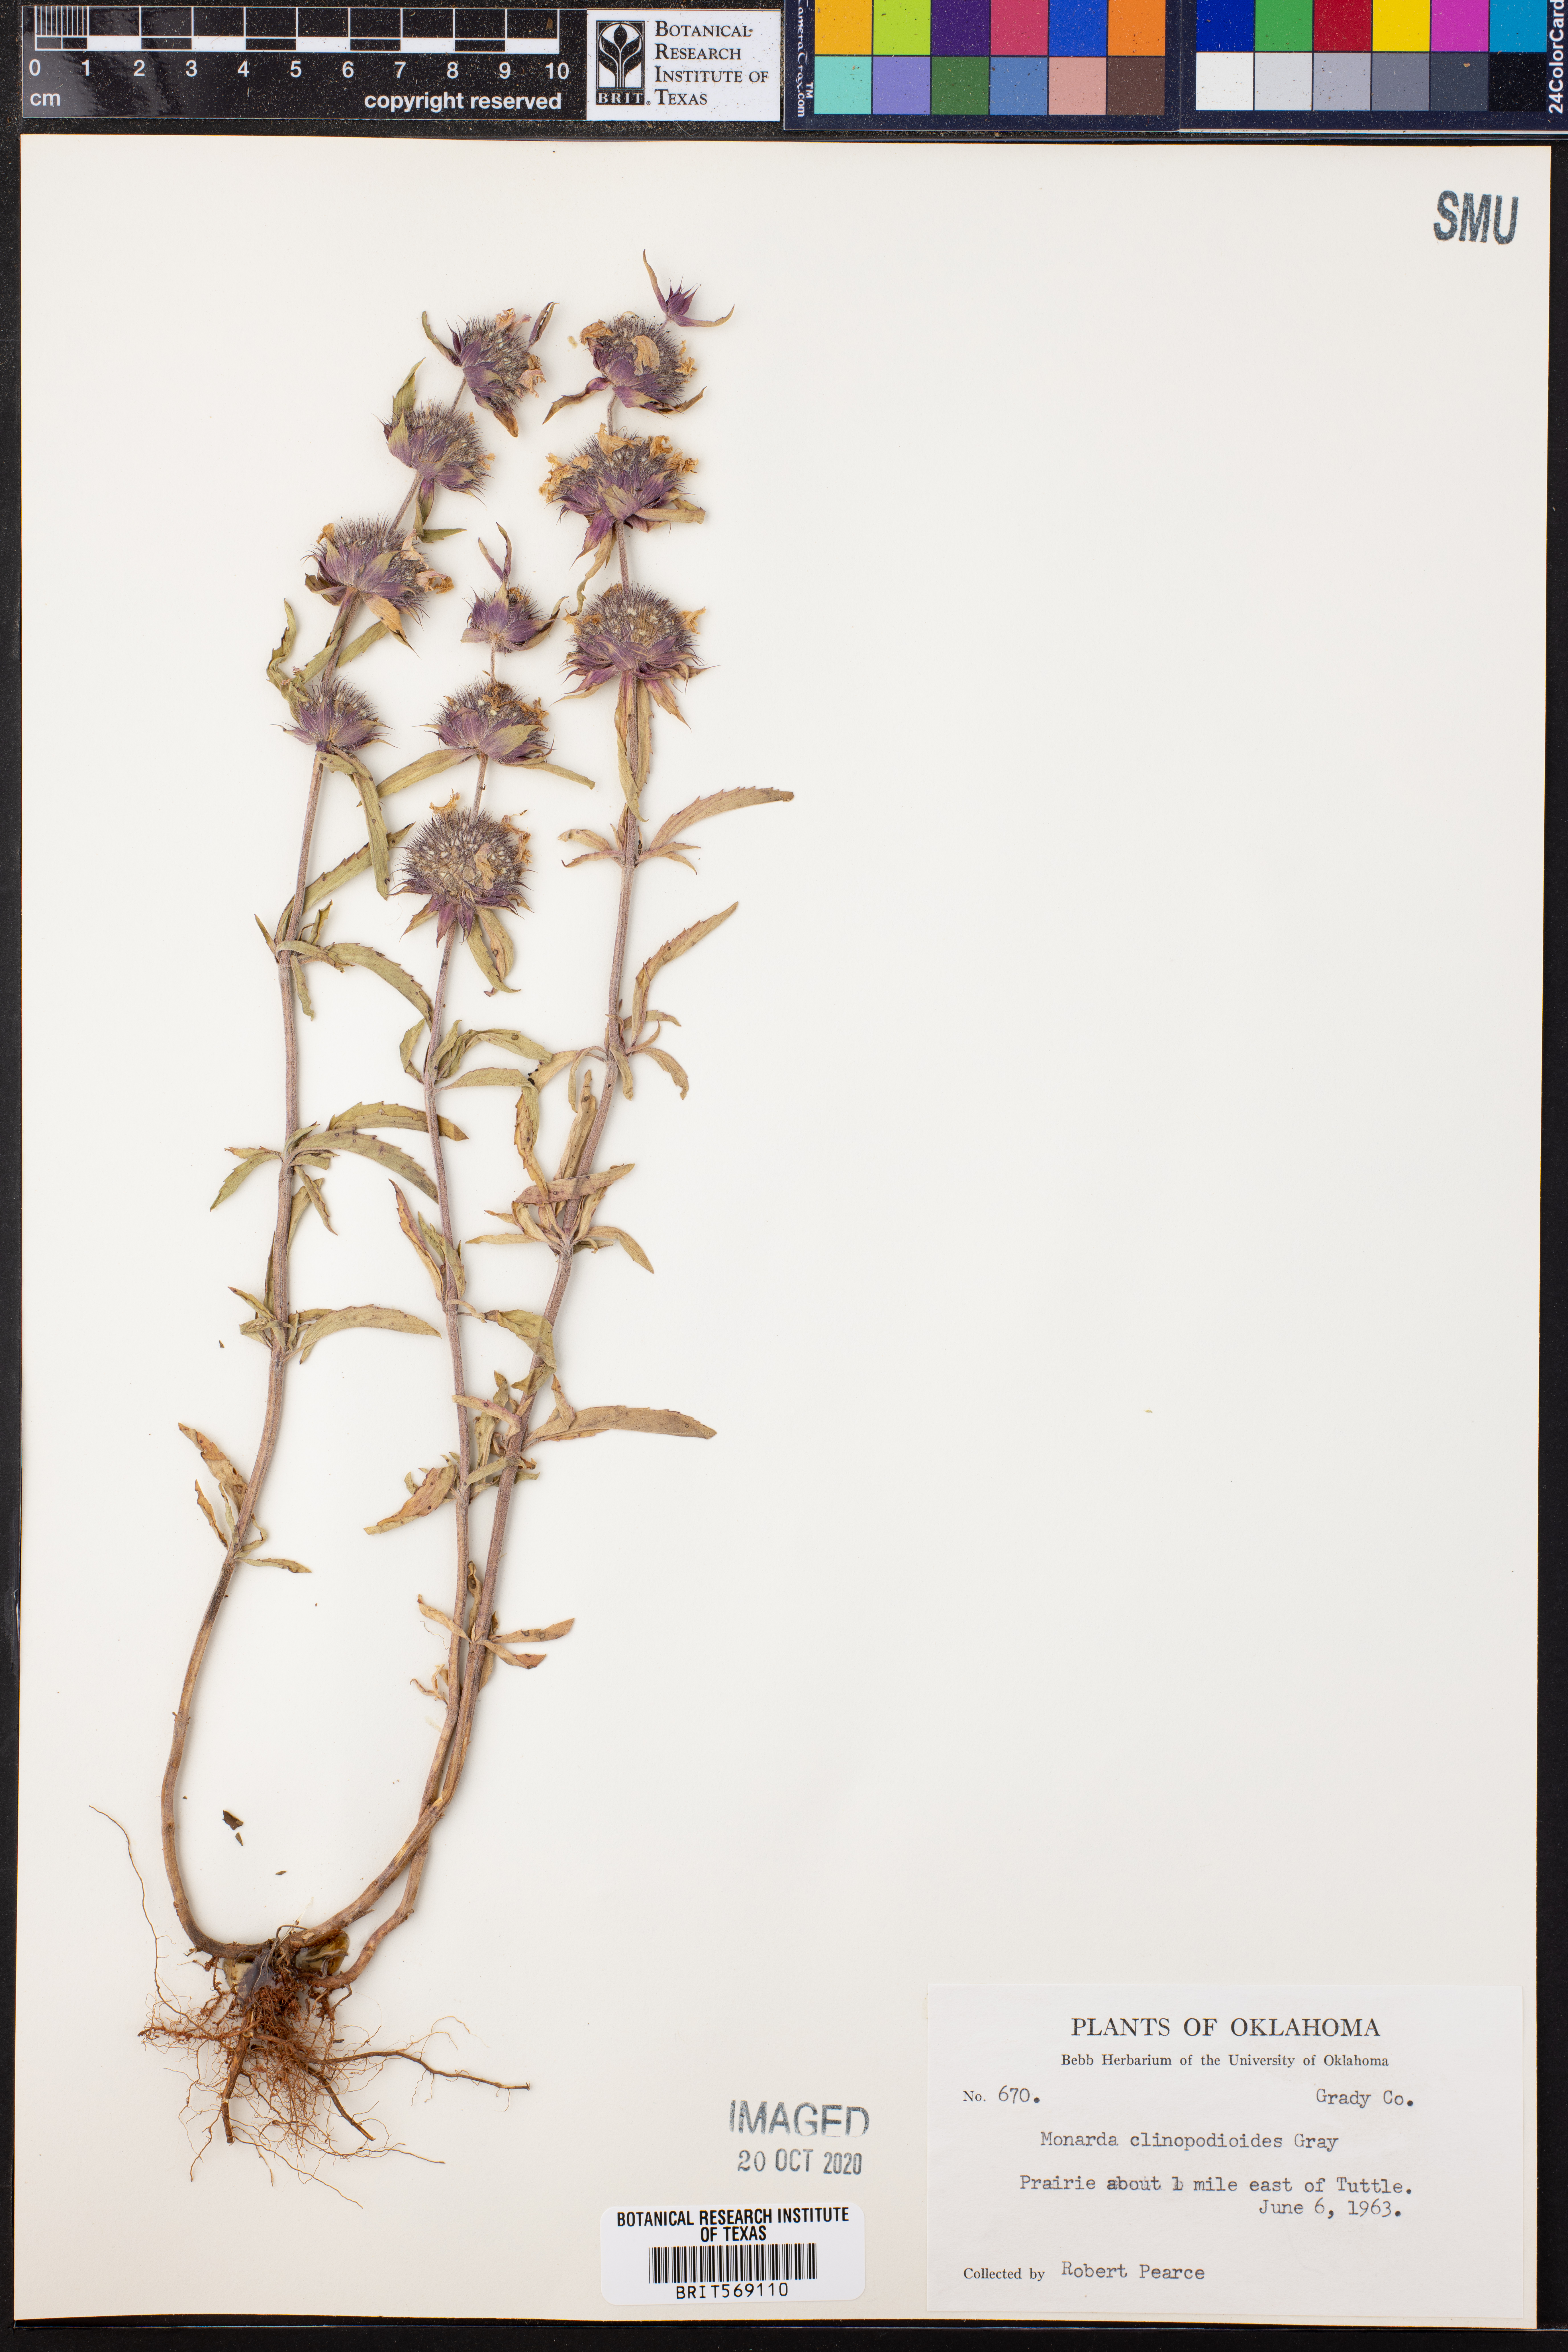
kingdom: Plantae
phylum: Tracheophyta
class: Magnoliopsida
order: Lamiales
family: Lamiaceae
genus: Monarda
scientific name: Monarda clinopodioides
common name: Basil beebalm
